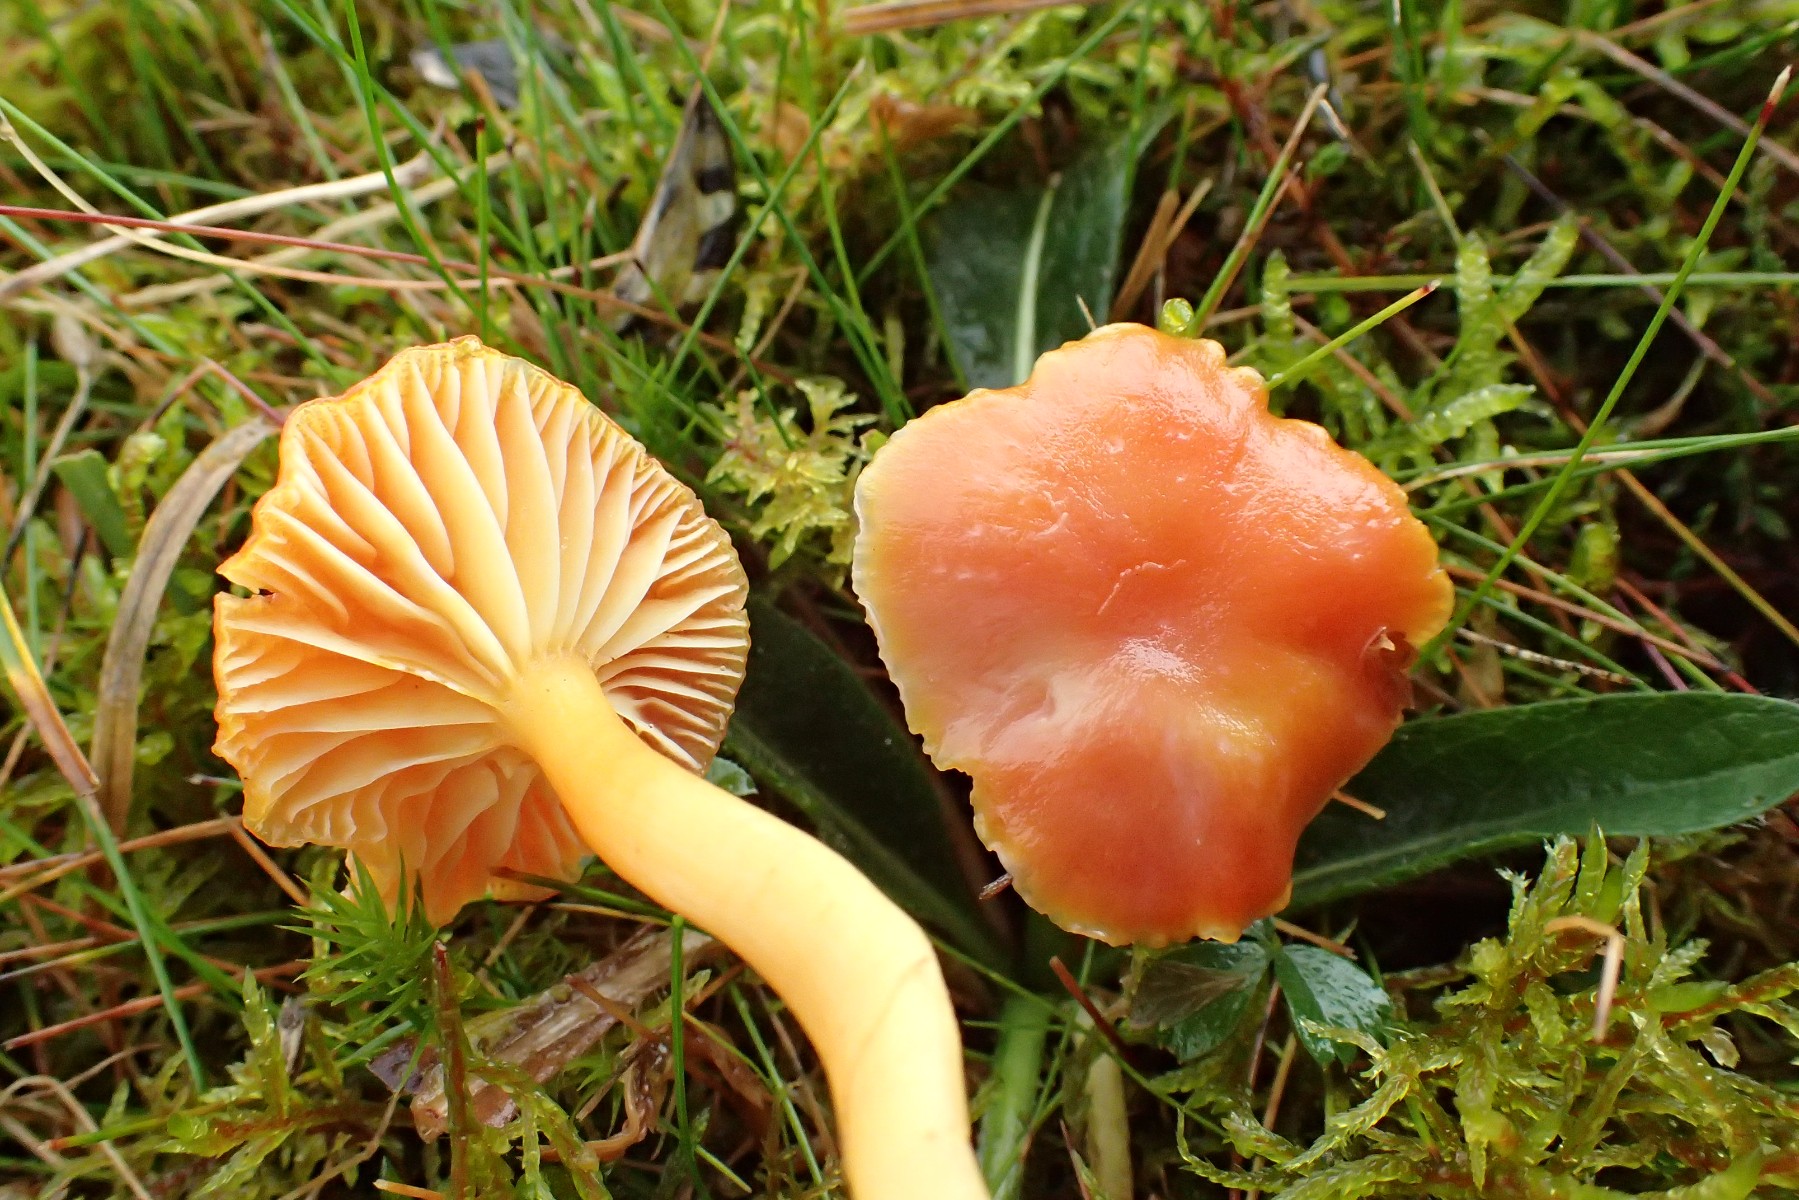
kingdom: Fungi
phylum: Basidiomycota
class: Agaricomycetes
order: Agaricales
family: Hygrophoraceae
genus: Hygrocybe
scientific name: Hygrocybe reidii
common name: honning-vokshat
